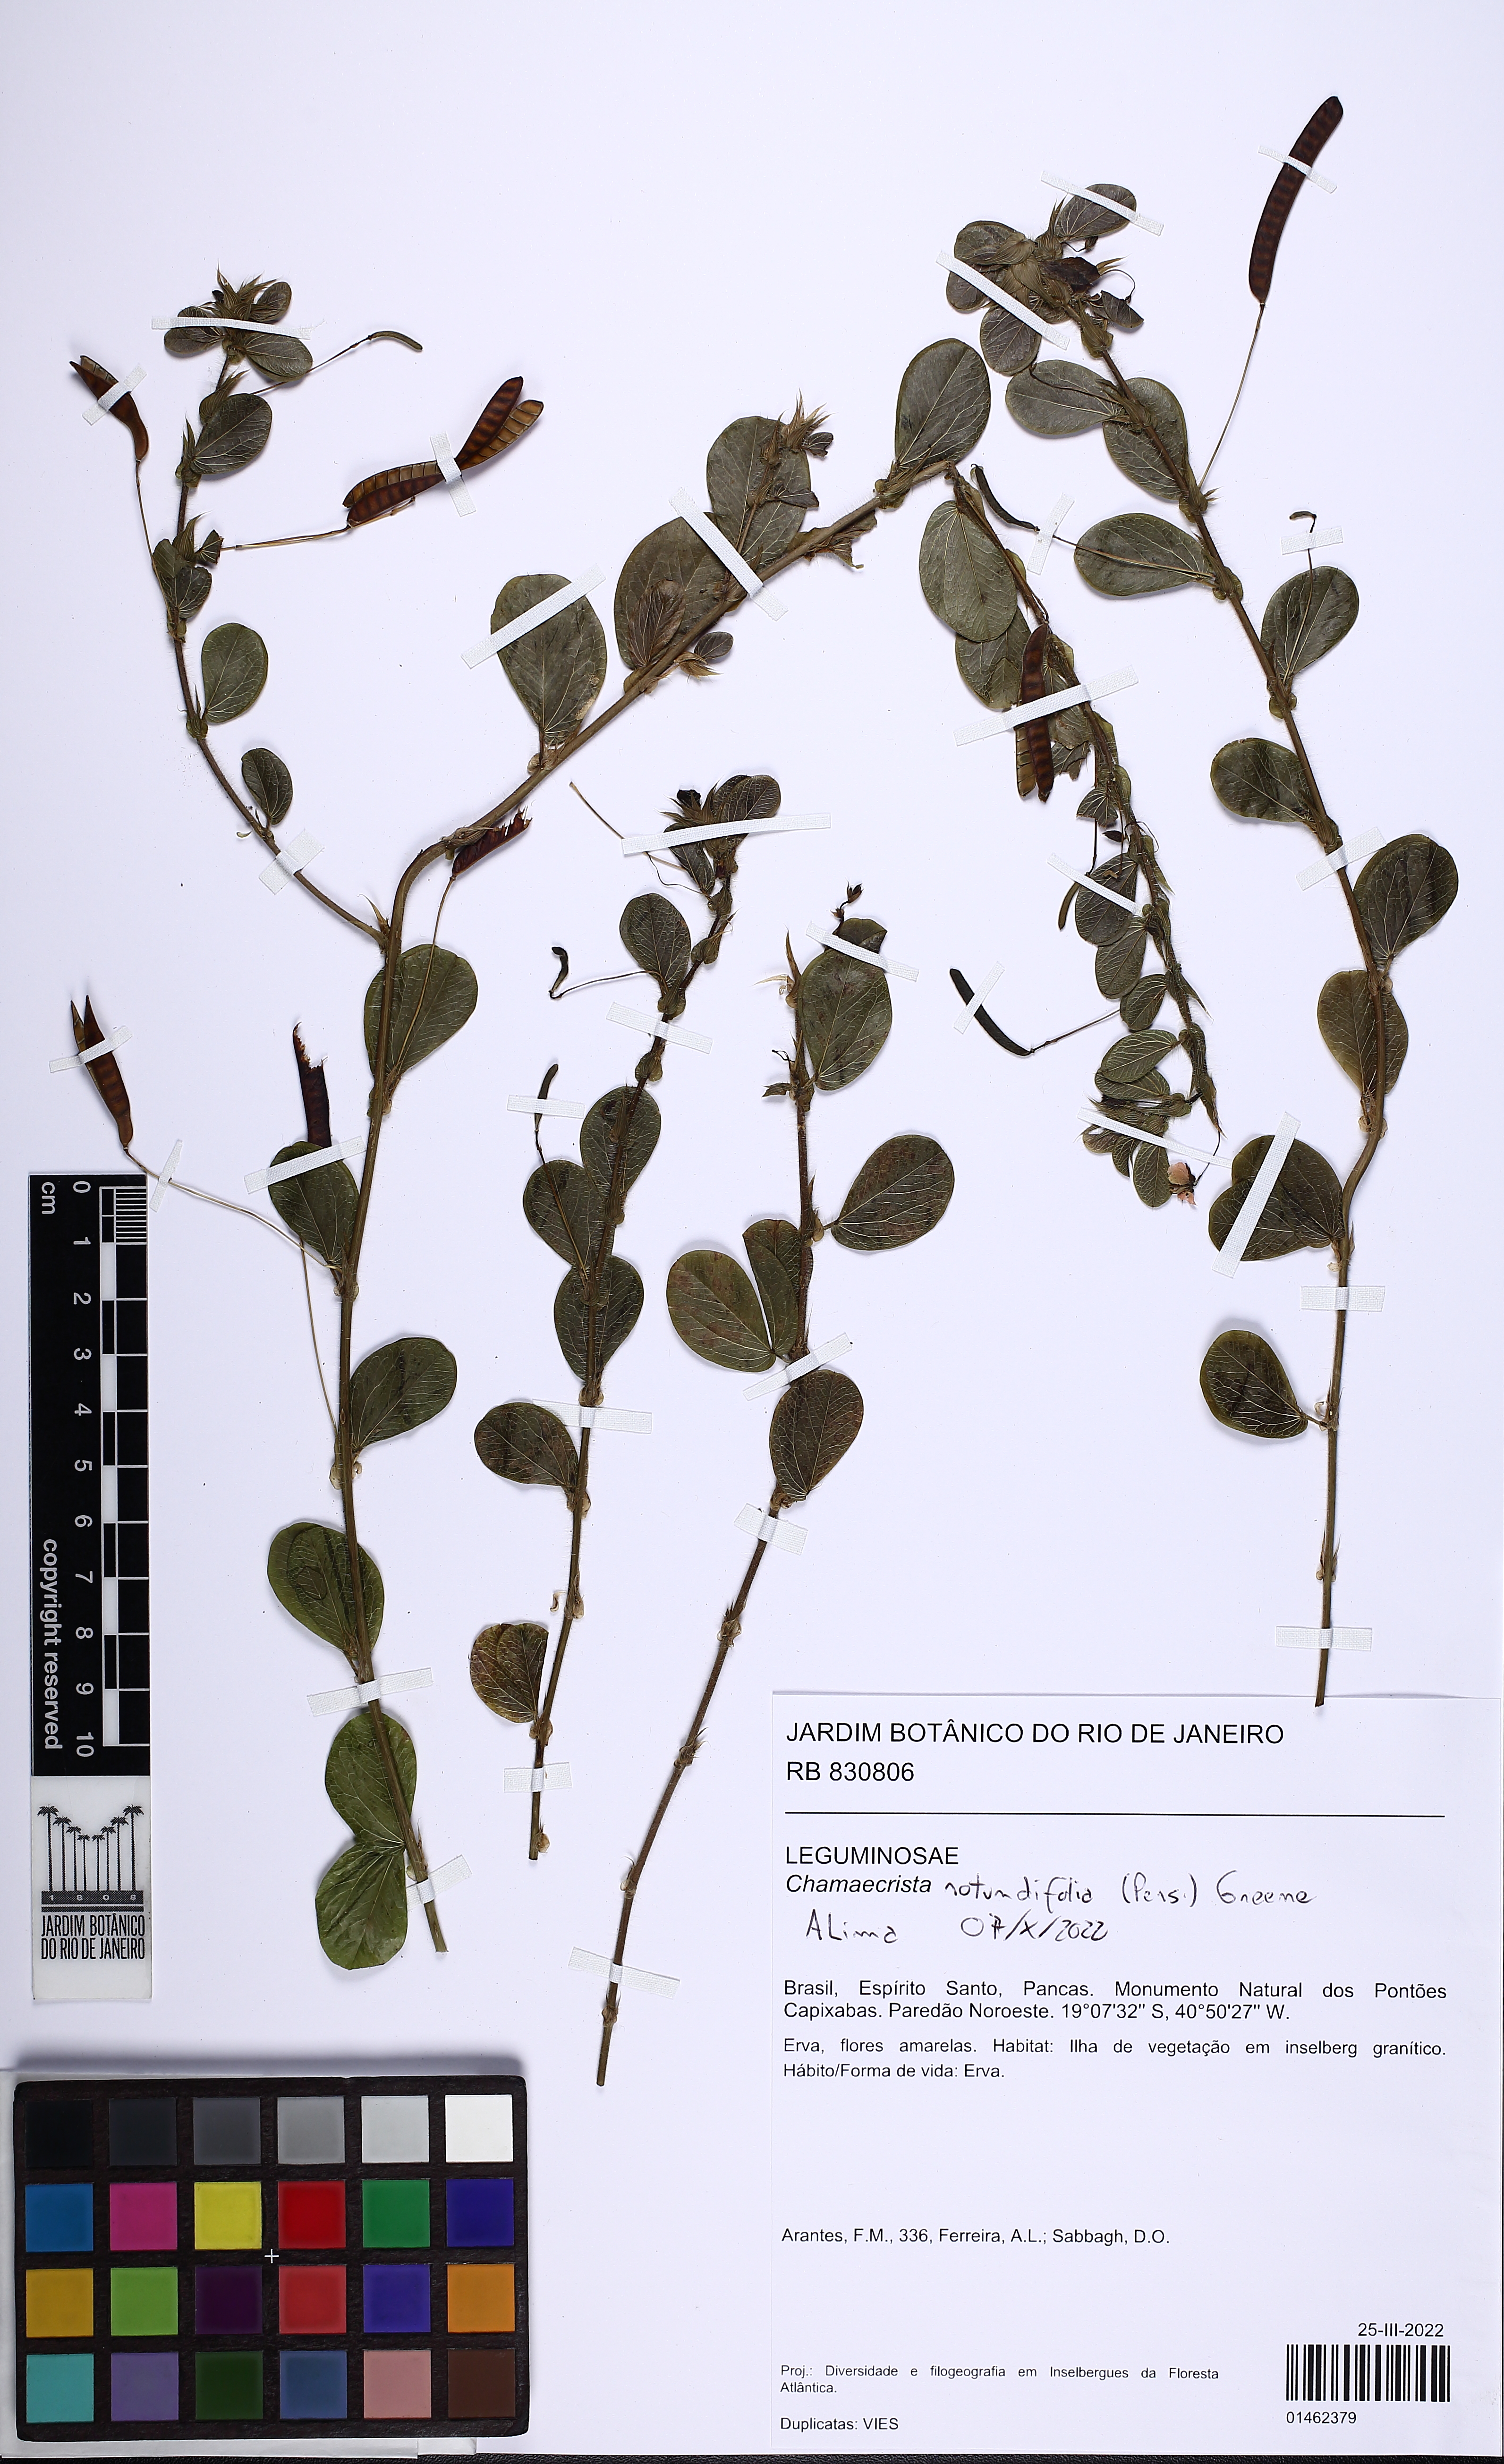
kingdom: Plantae
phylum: Tracheophyta
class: Magnoliopsida
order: Fabales
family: Fabaceae
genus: Chamaecrista
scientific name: Chamaecrista rotundifolia
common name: Round-leaf cassia
